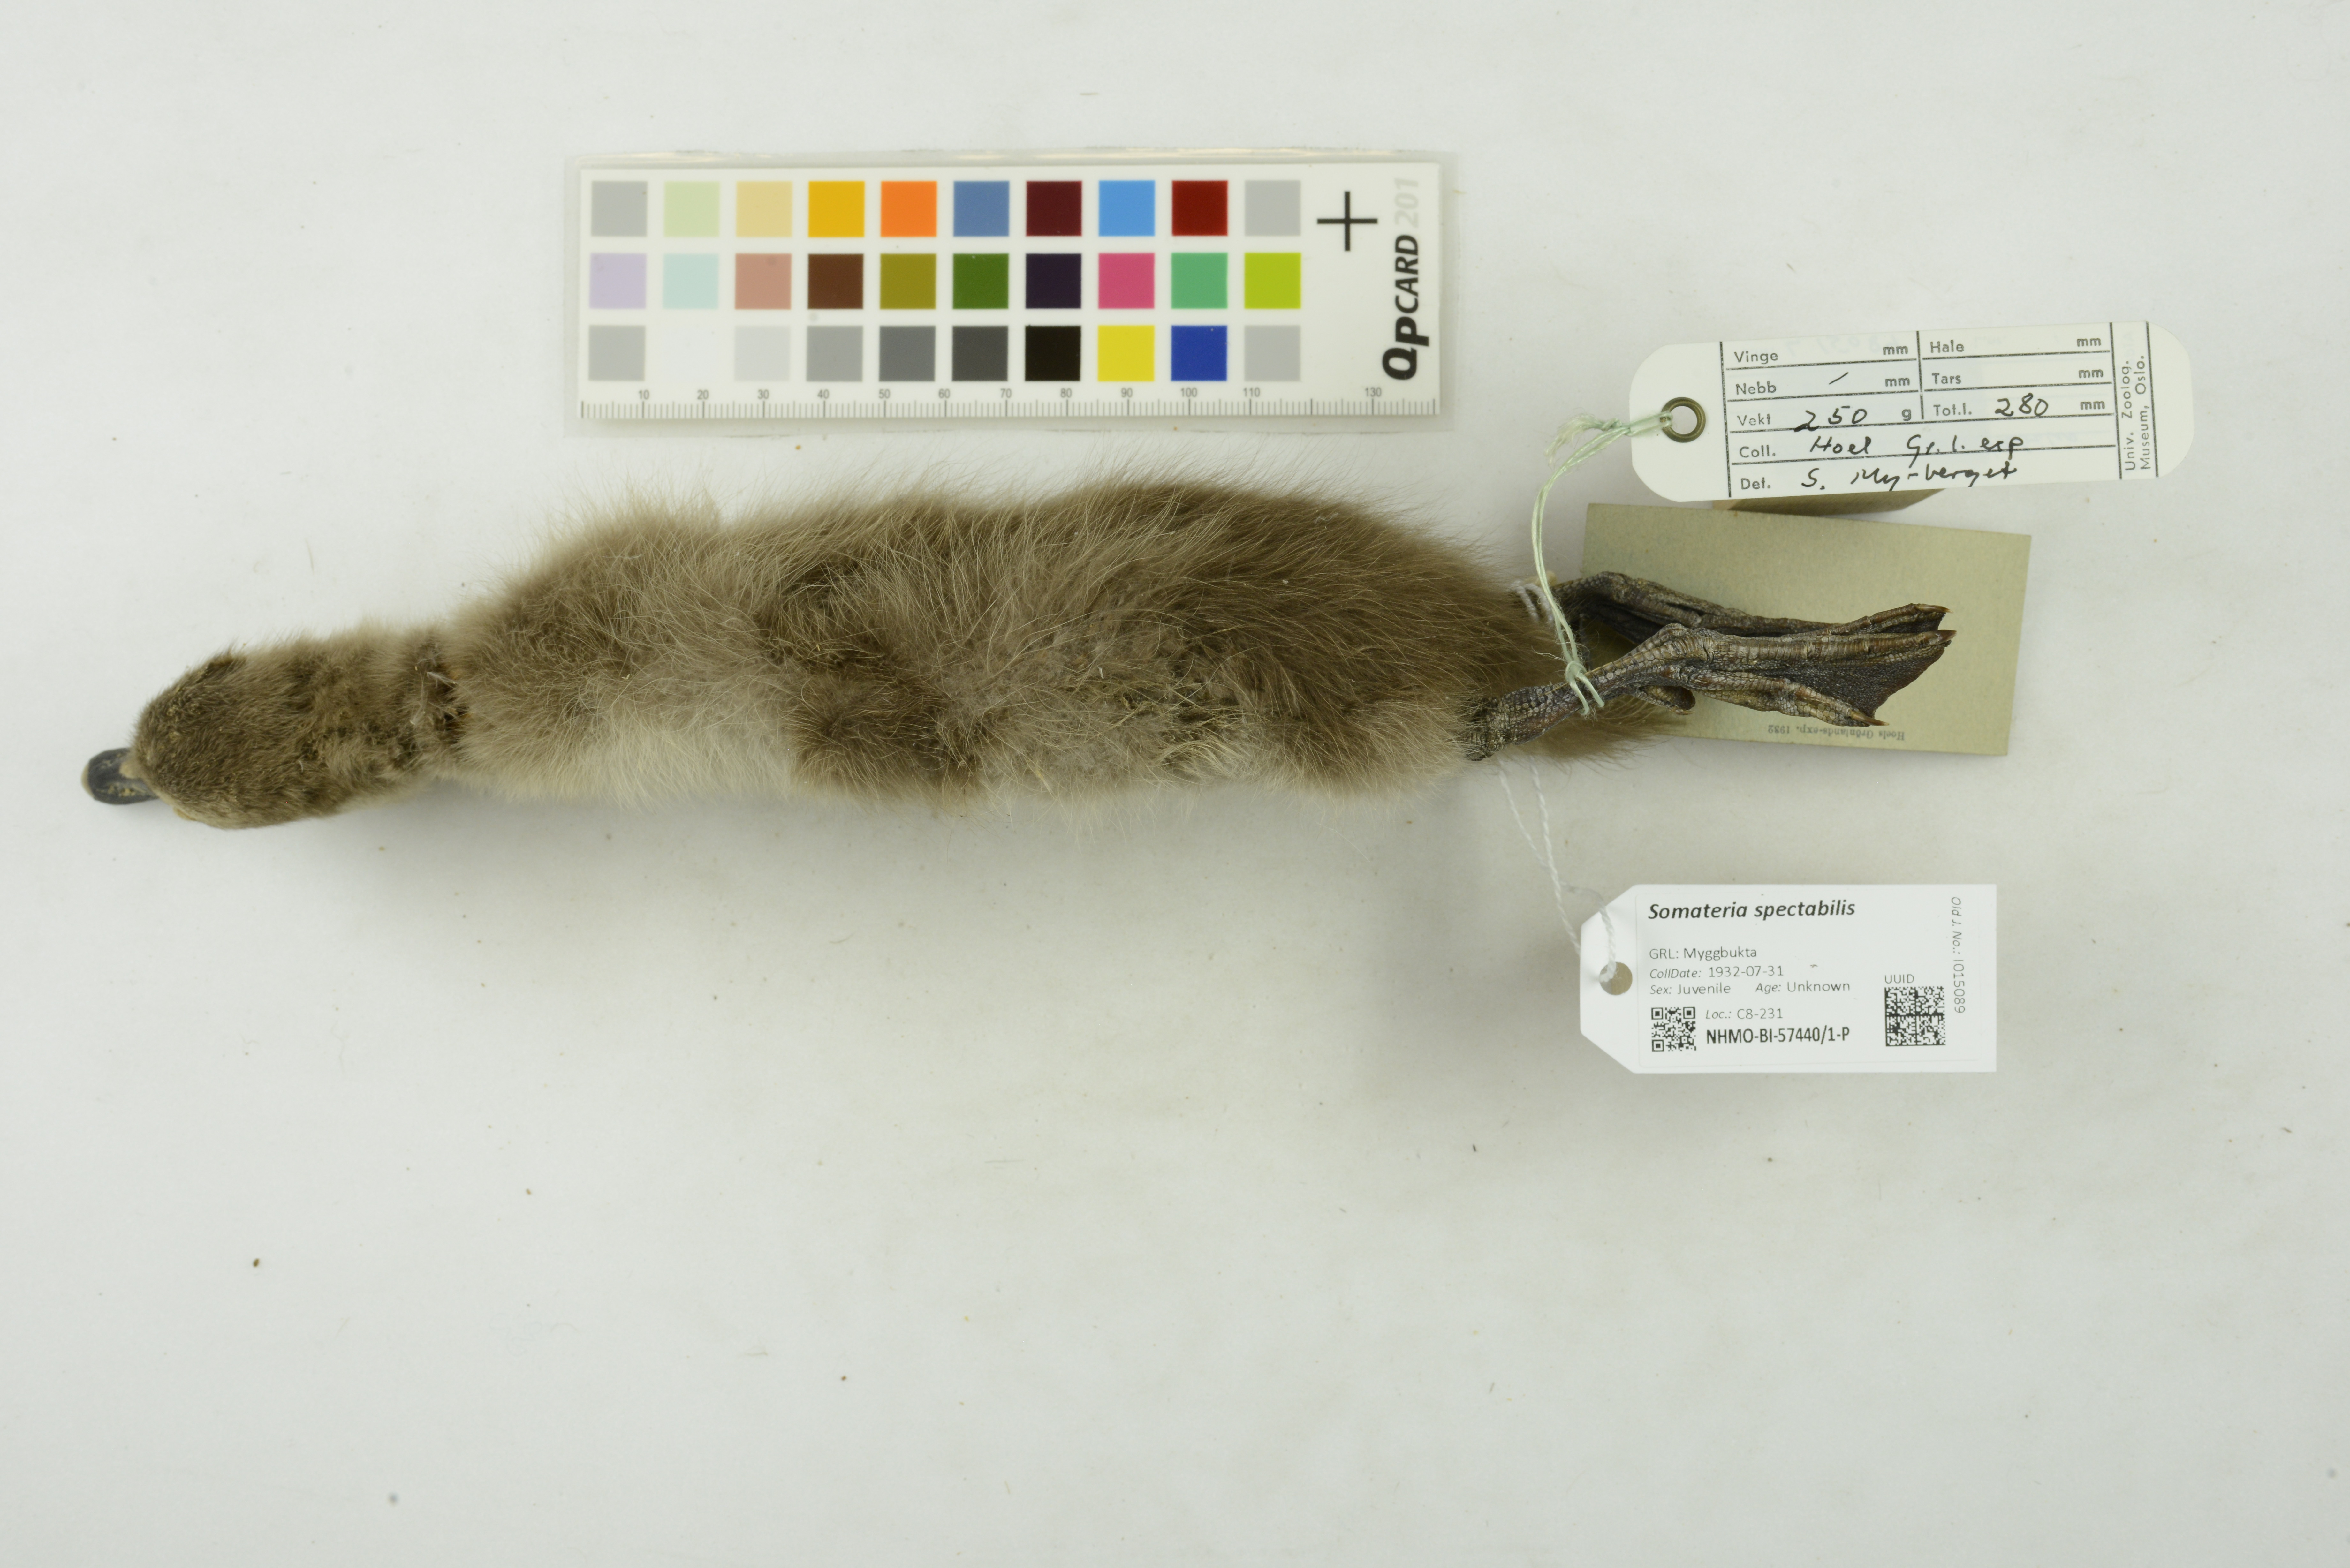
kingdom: Animalia
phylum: Chordata
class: Aves
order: Anseriformes
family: Anatidae
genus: Somateria
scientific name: Somateria spectabilis
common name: King eider
